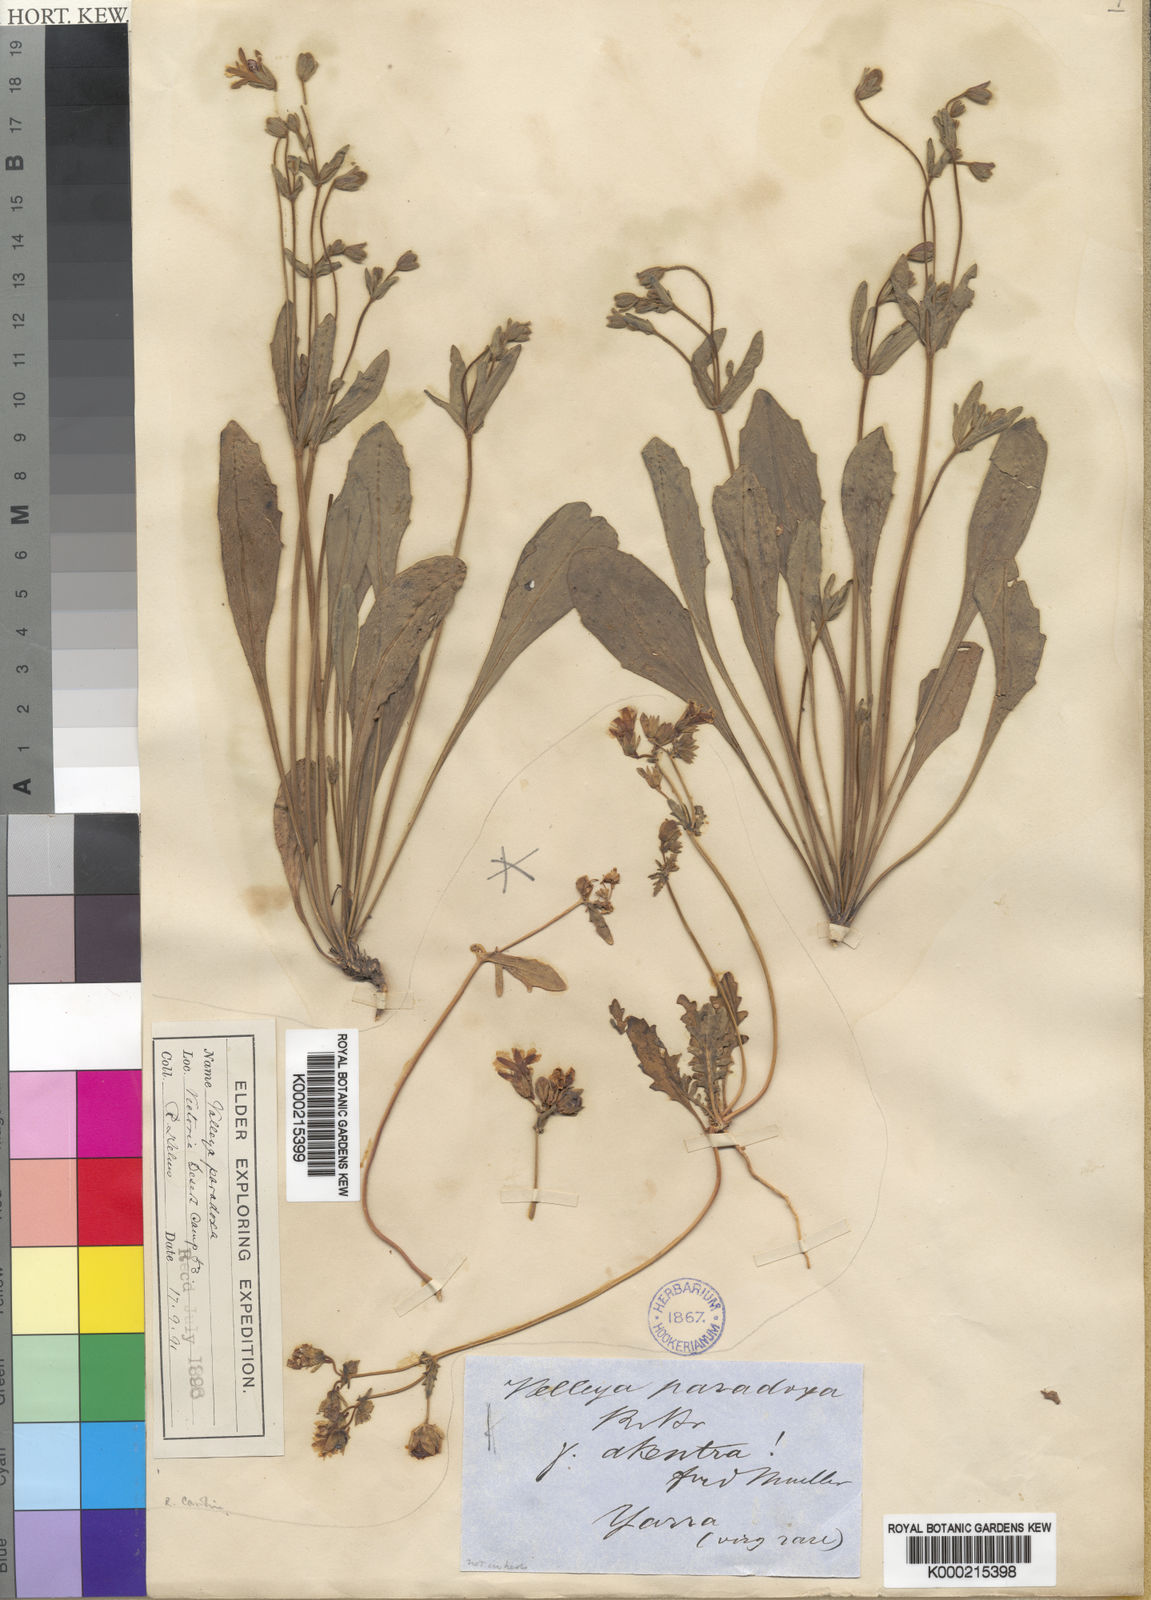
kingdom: Plantae
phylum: Tracheophyta
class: Magnoliopsida
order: Asterales
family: Goodeniaceae
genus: Goodenia
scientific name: Goodenia paradoxa
